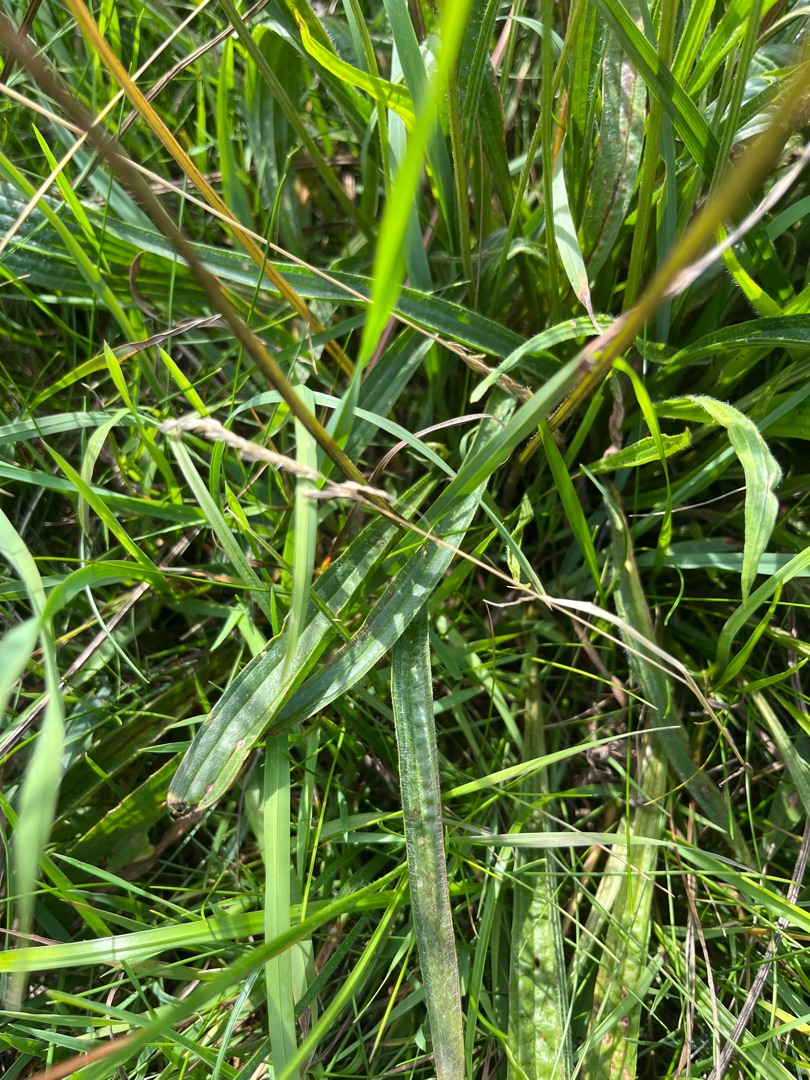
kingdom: Plantae
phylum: Tracheophyta
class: Magnoliopsida
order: Lamiales
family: Plantaginaceae
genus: Plantago
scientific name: Plantago lanceolata
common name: Lancet-vejbred
